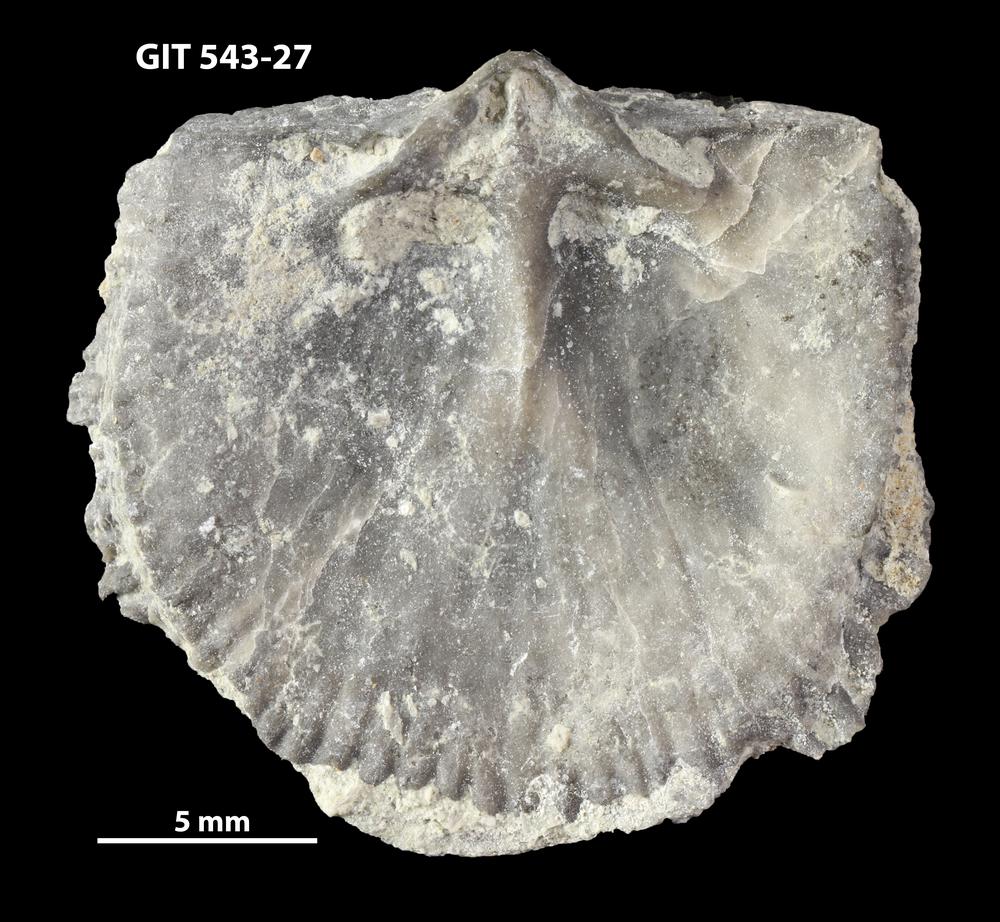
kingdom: Animalia
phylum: Brachiopoda
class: Rhynchonellata
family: Clitambonitidae
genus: Clitambonites
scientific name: Clitambonites Orthisina schmidti
